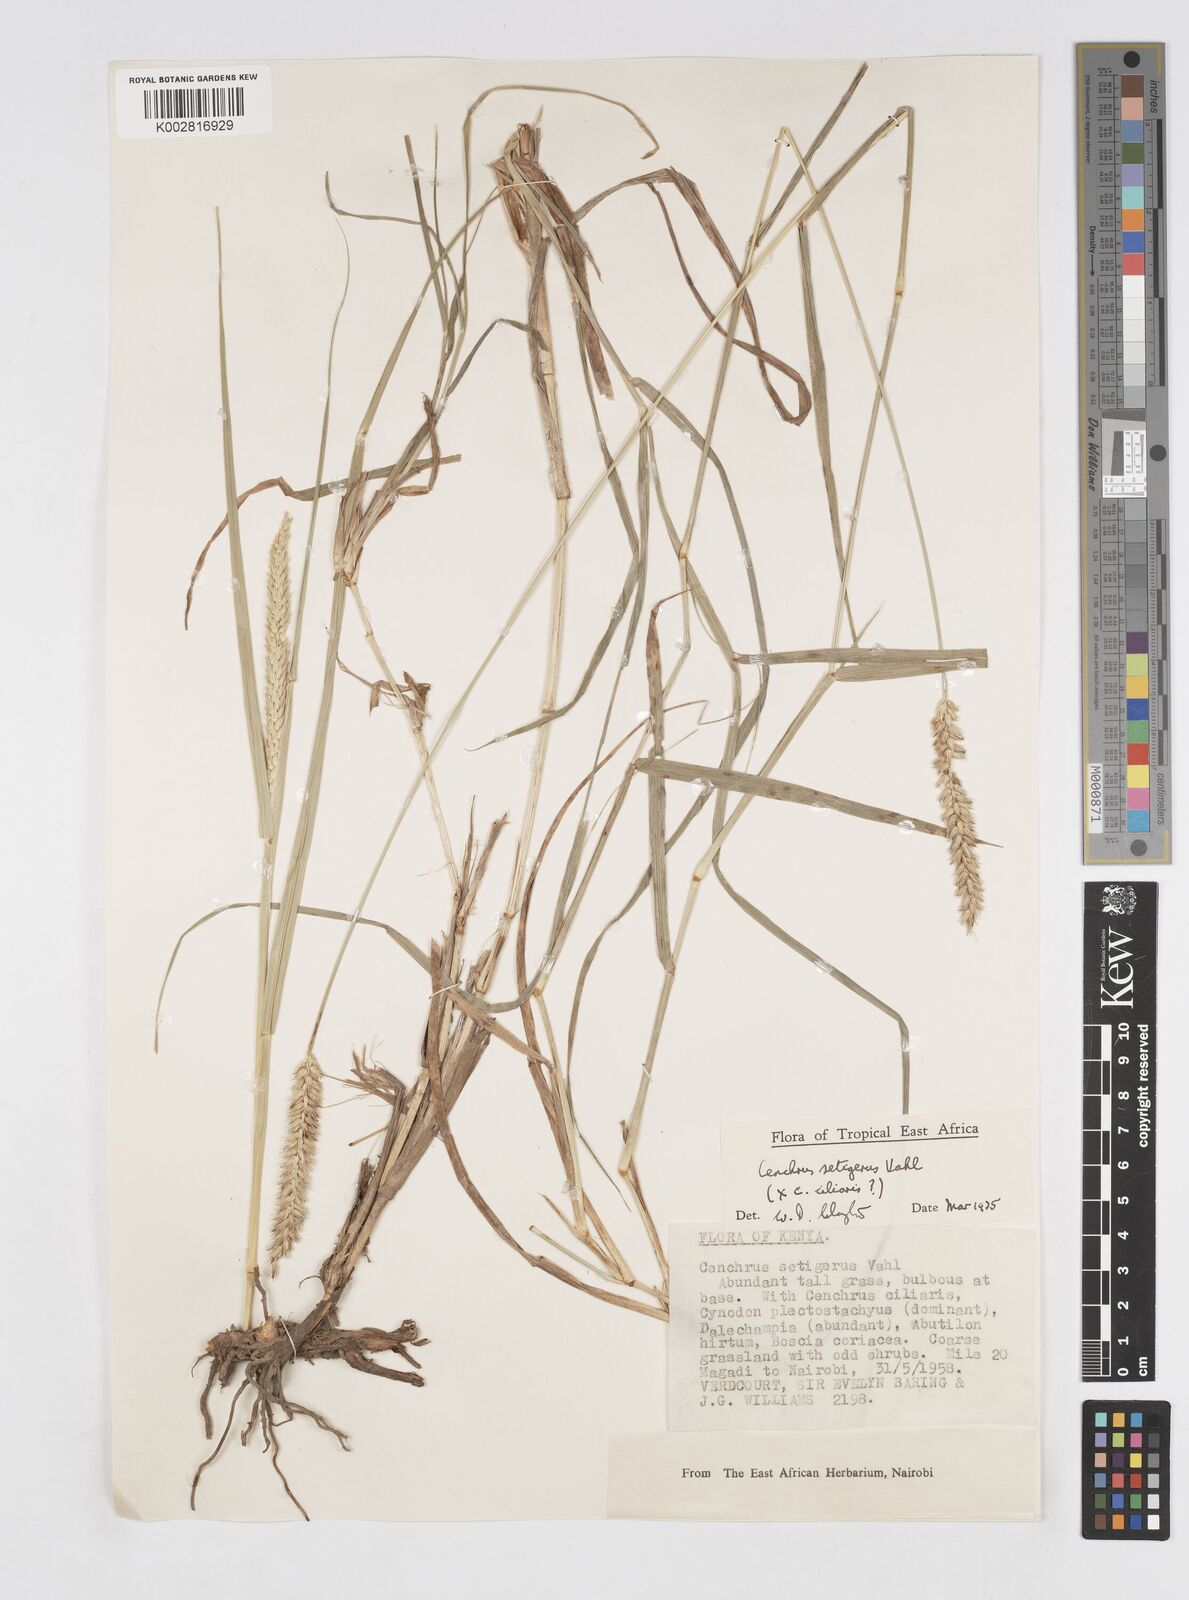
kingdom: Plantae
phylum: Tracheophyta
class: Liliopsida
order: Poales
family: Poaceae
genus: Cenchrus
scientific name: Cenchrus setigerus
